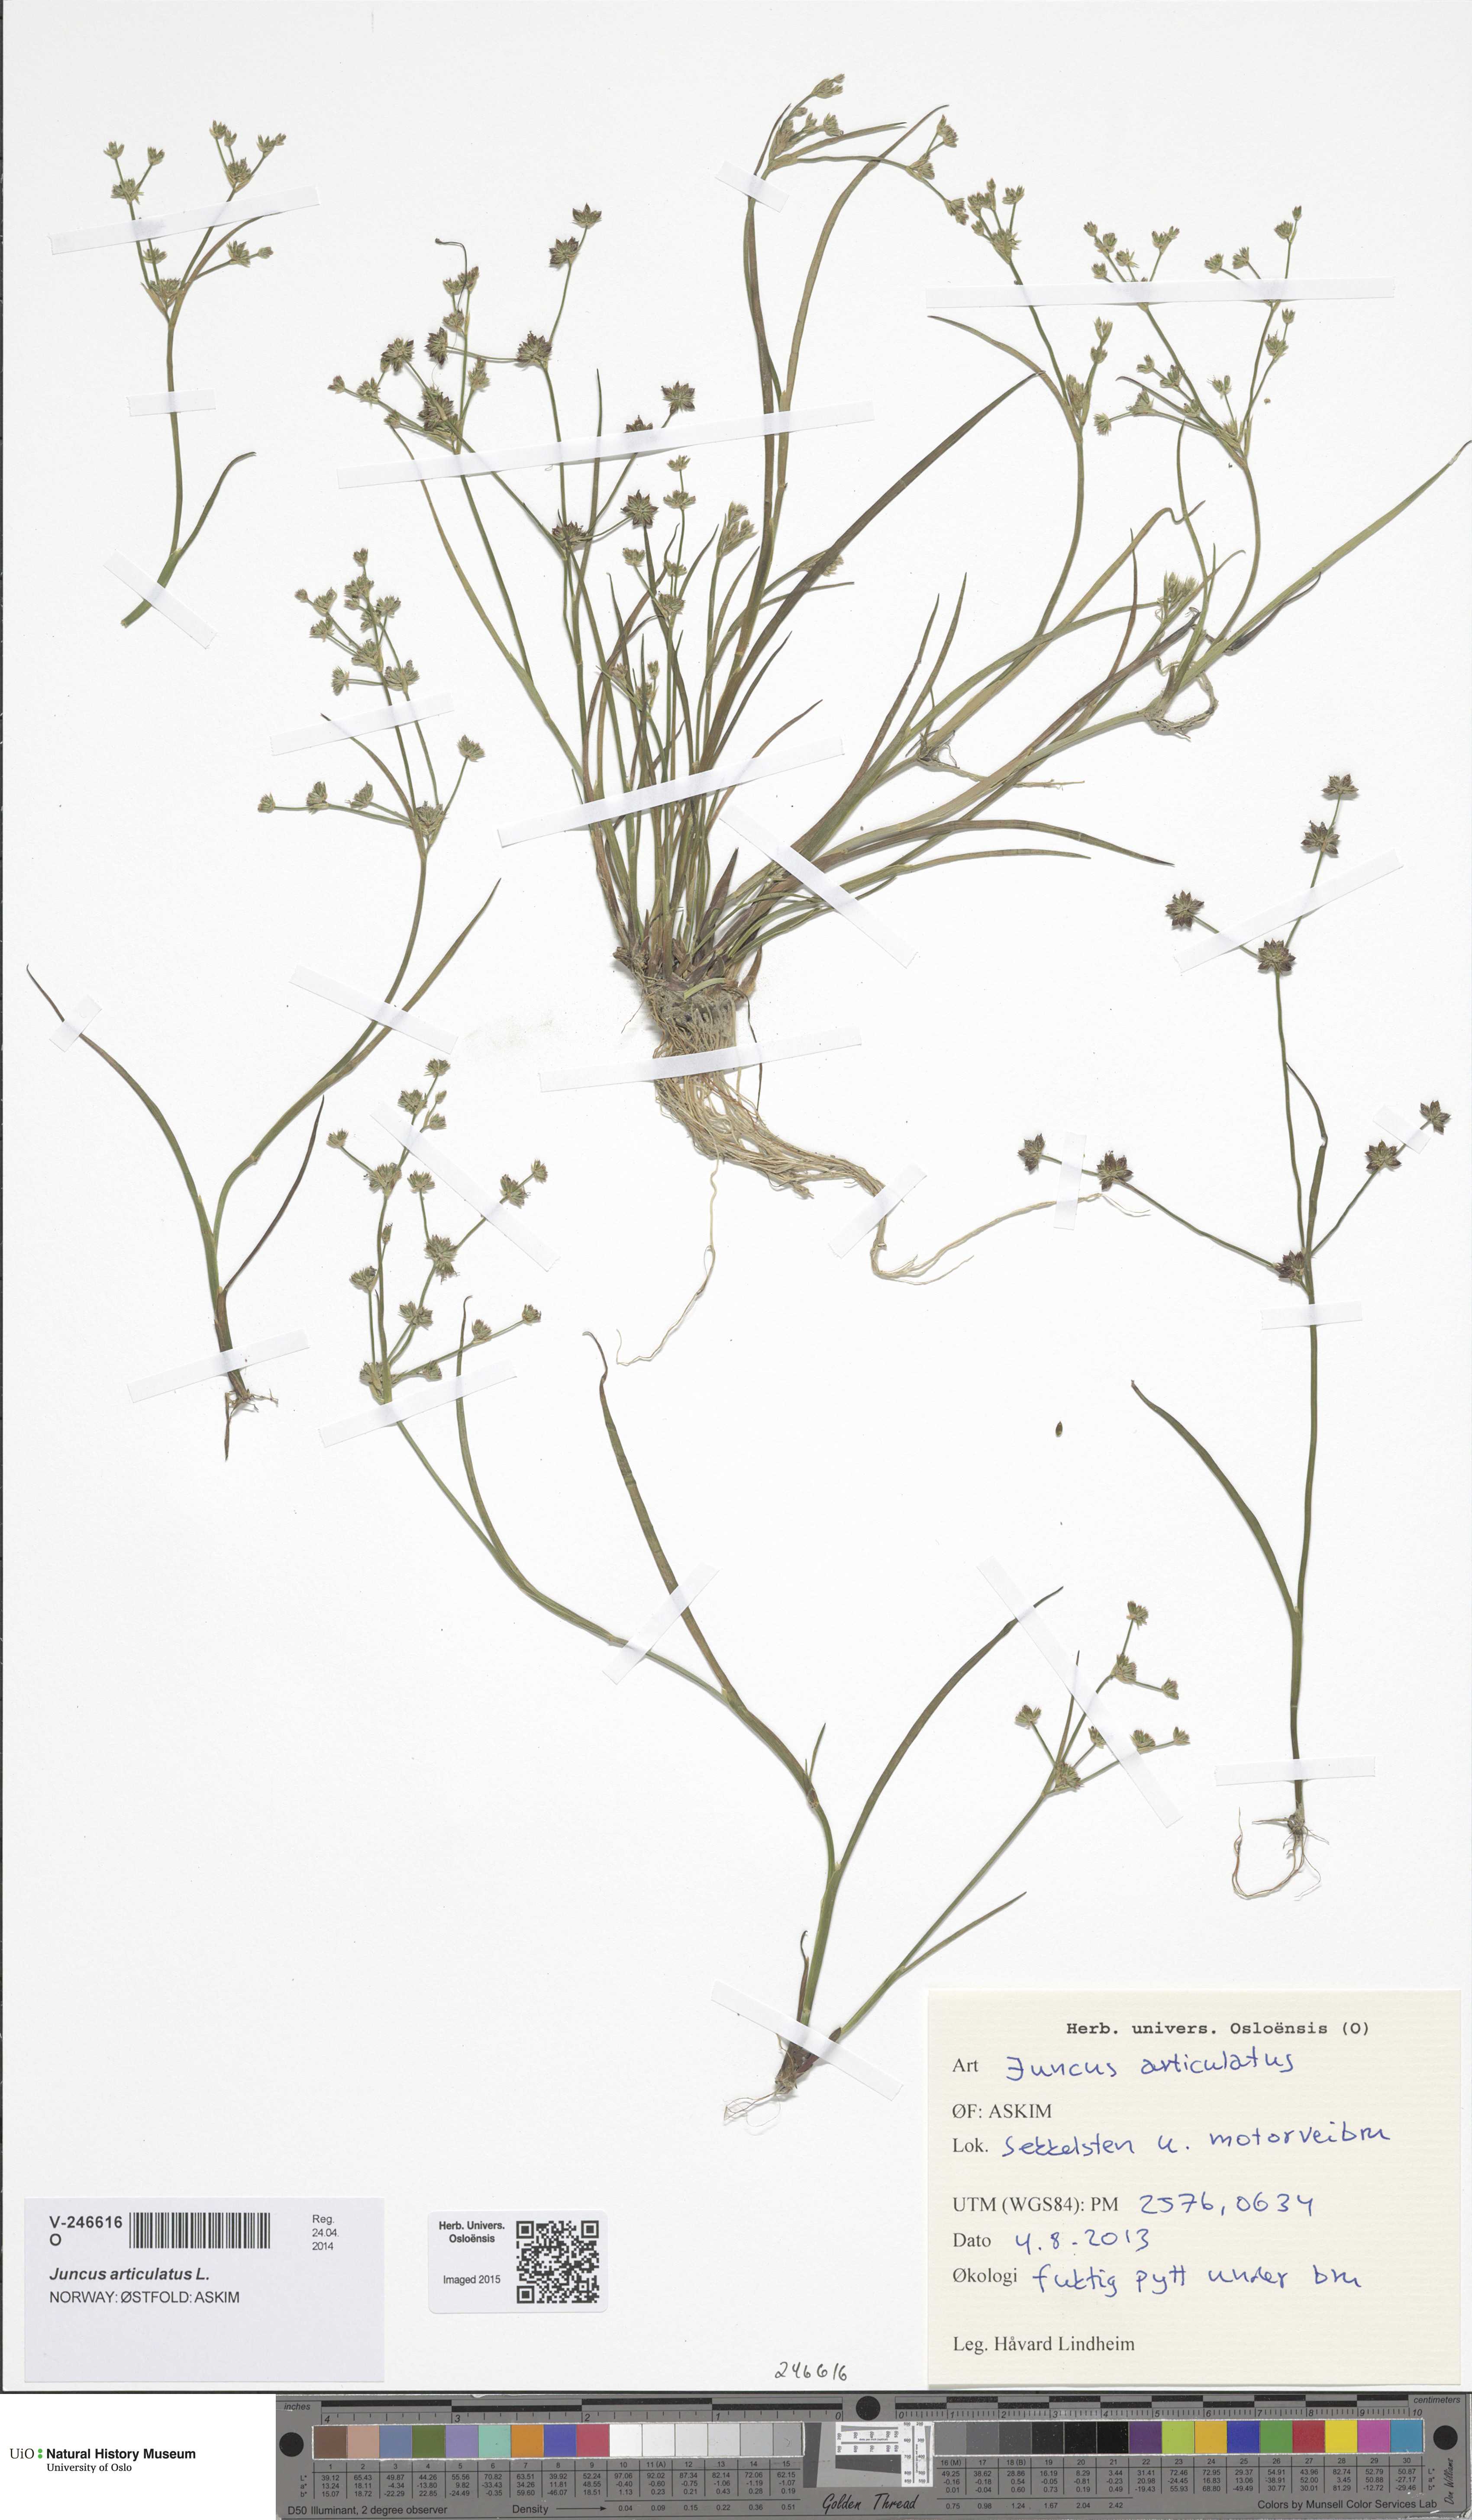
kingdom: Plantae
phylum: Tracheophyta
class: Liliopsida
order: Poales
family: Juncaceae
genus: Juncus
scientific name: Juncus articulatus
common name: Jointed rush
